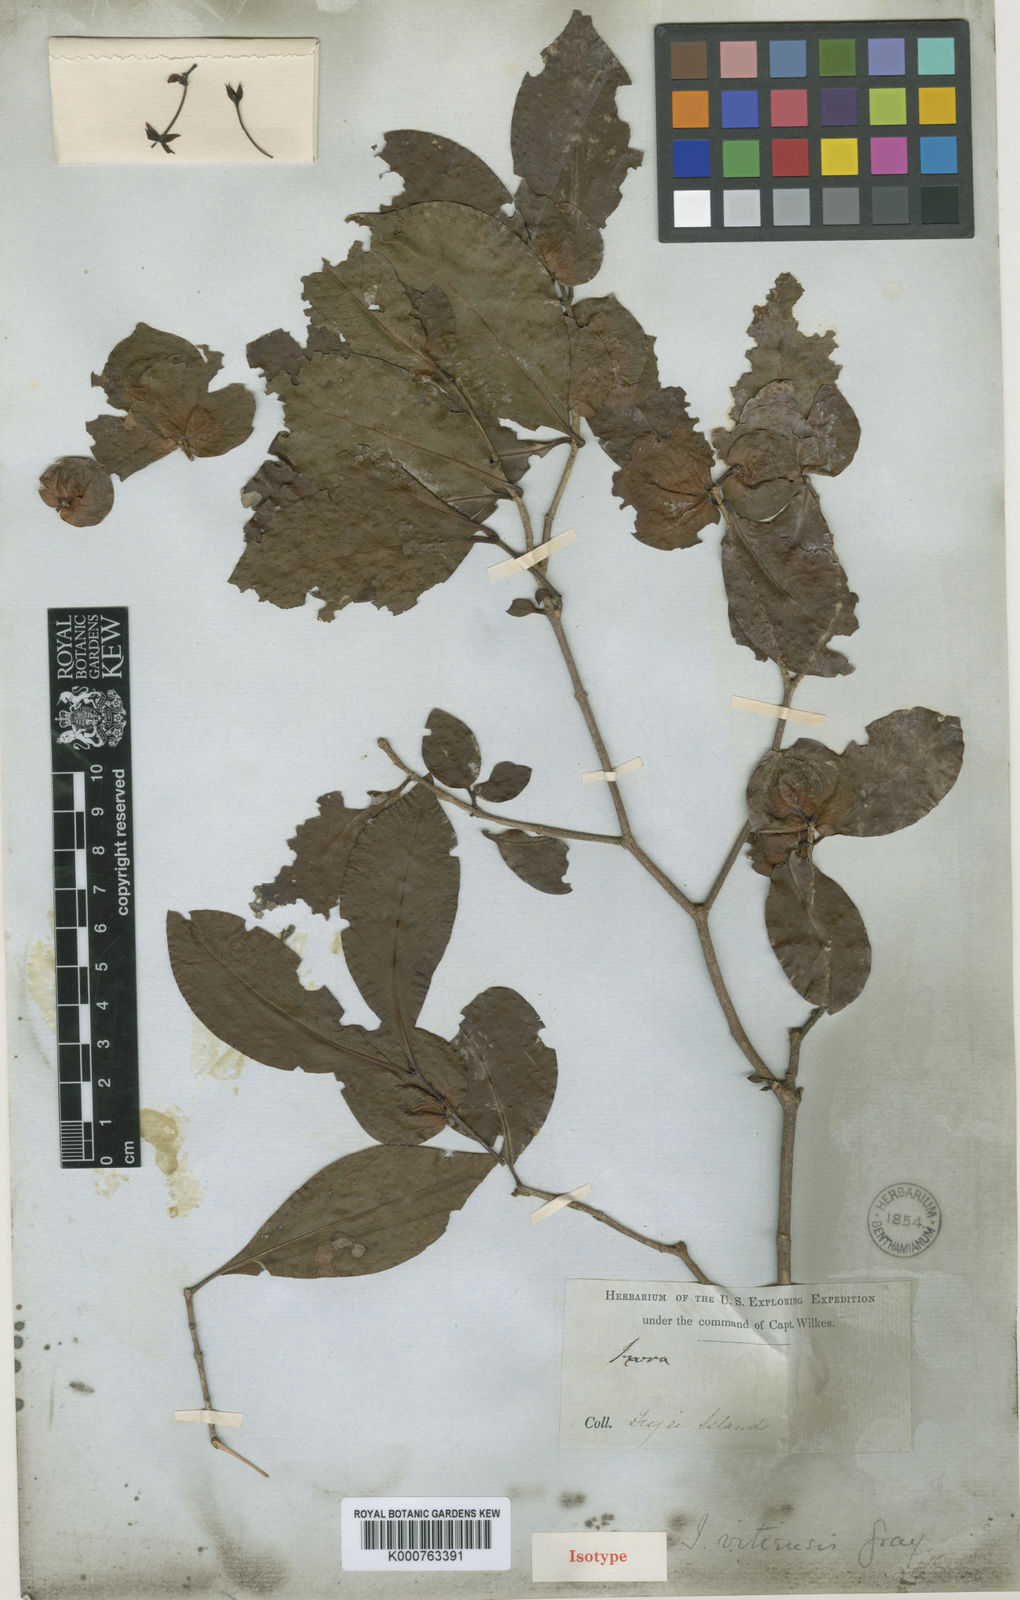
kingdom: Plantae
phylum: Tracheophyta
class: Magnoliopsida
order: Gentianales
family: Rubiaceae
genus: Ixora
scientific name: Ixora vitiensis
